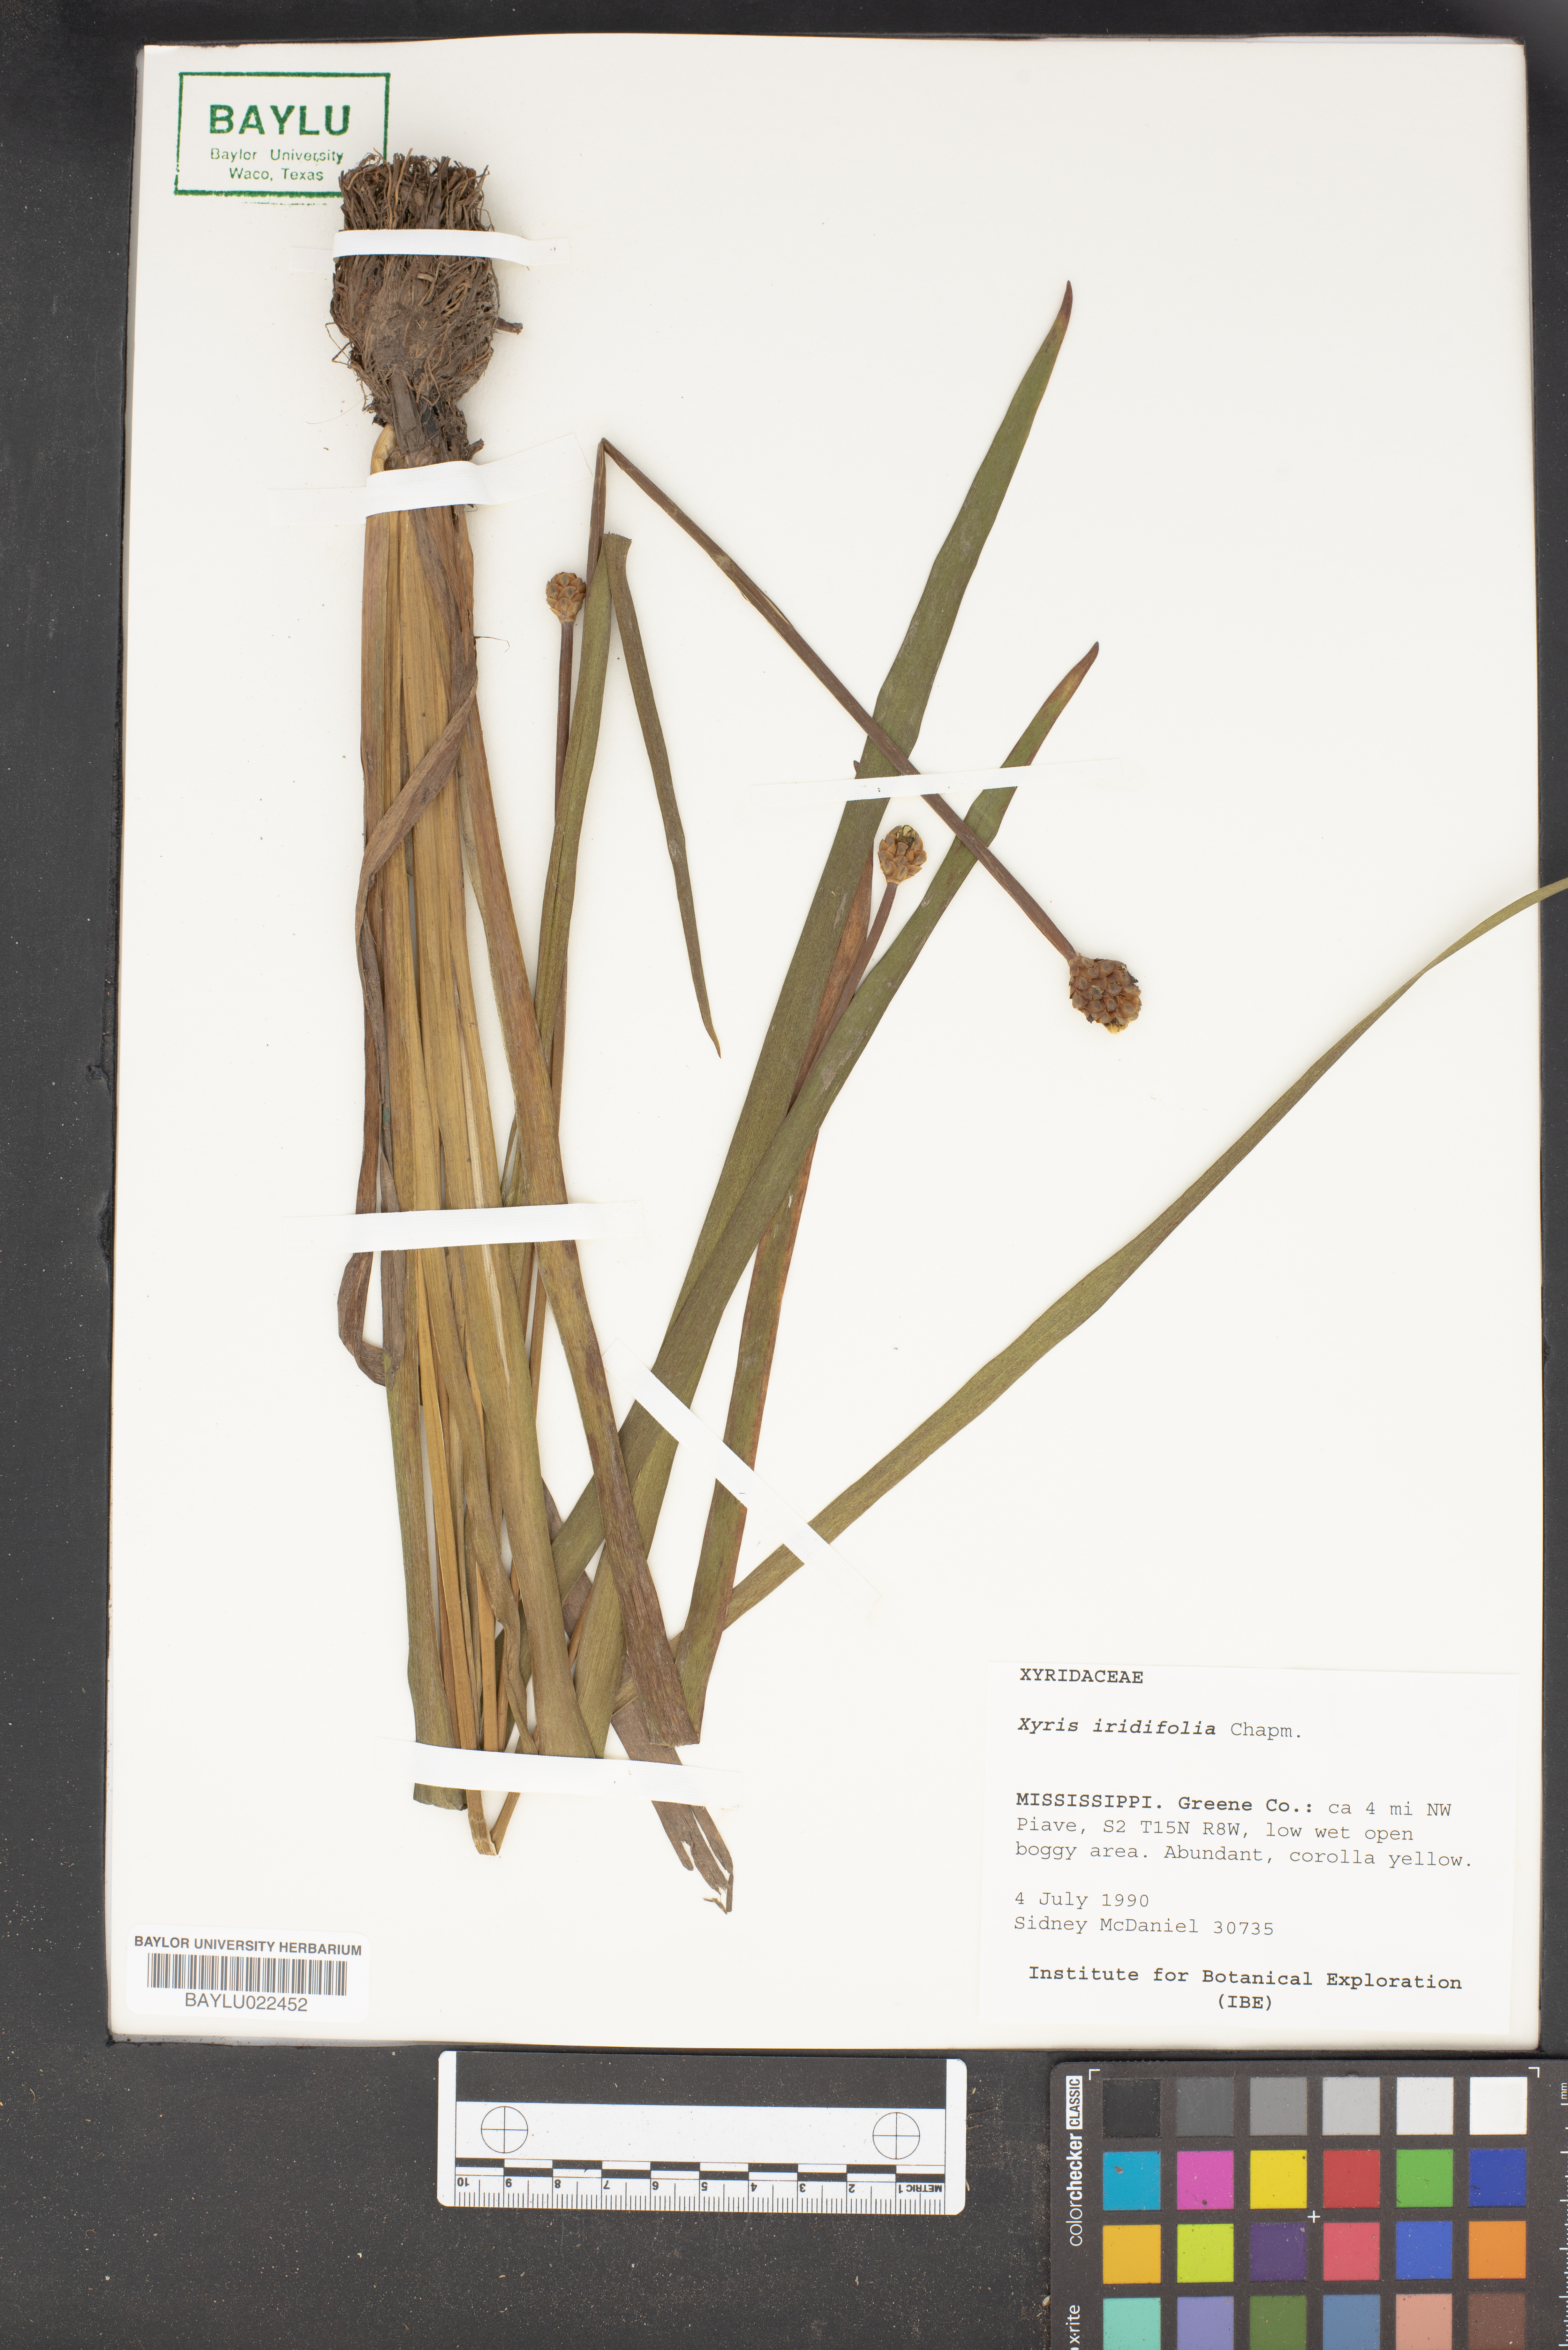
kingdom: Plantae
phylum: Tracheophyta
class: Liliopsida
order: Poales
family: Xyridaceae
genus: Xyris
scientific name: Xyris laxifolia
